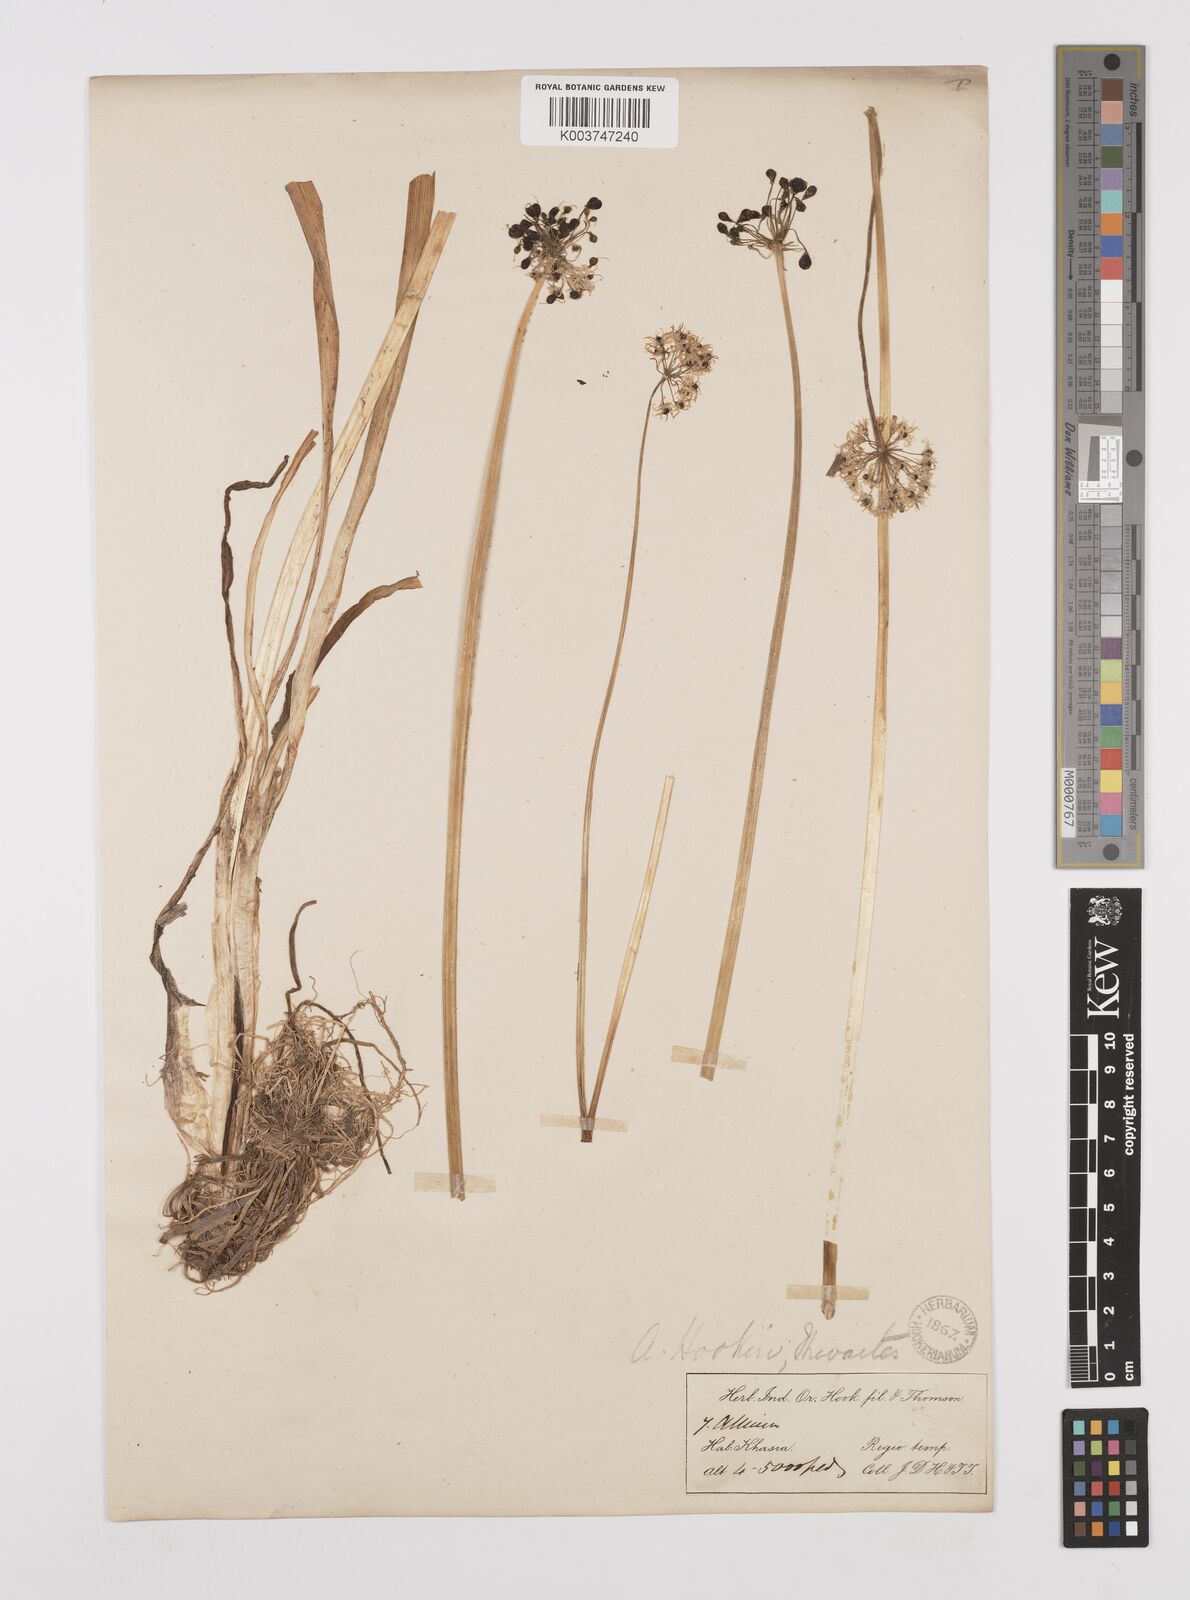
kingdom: Plantae
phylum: Tracheophyta
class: Liliopsida
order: Asparagales
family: Amaryllidaceae
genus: Allium
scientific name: Allium hookeri
